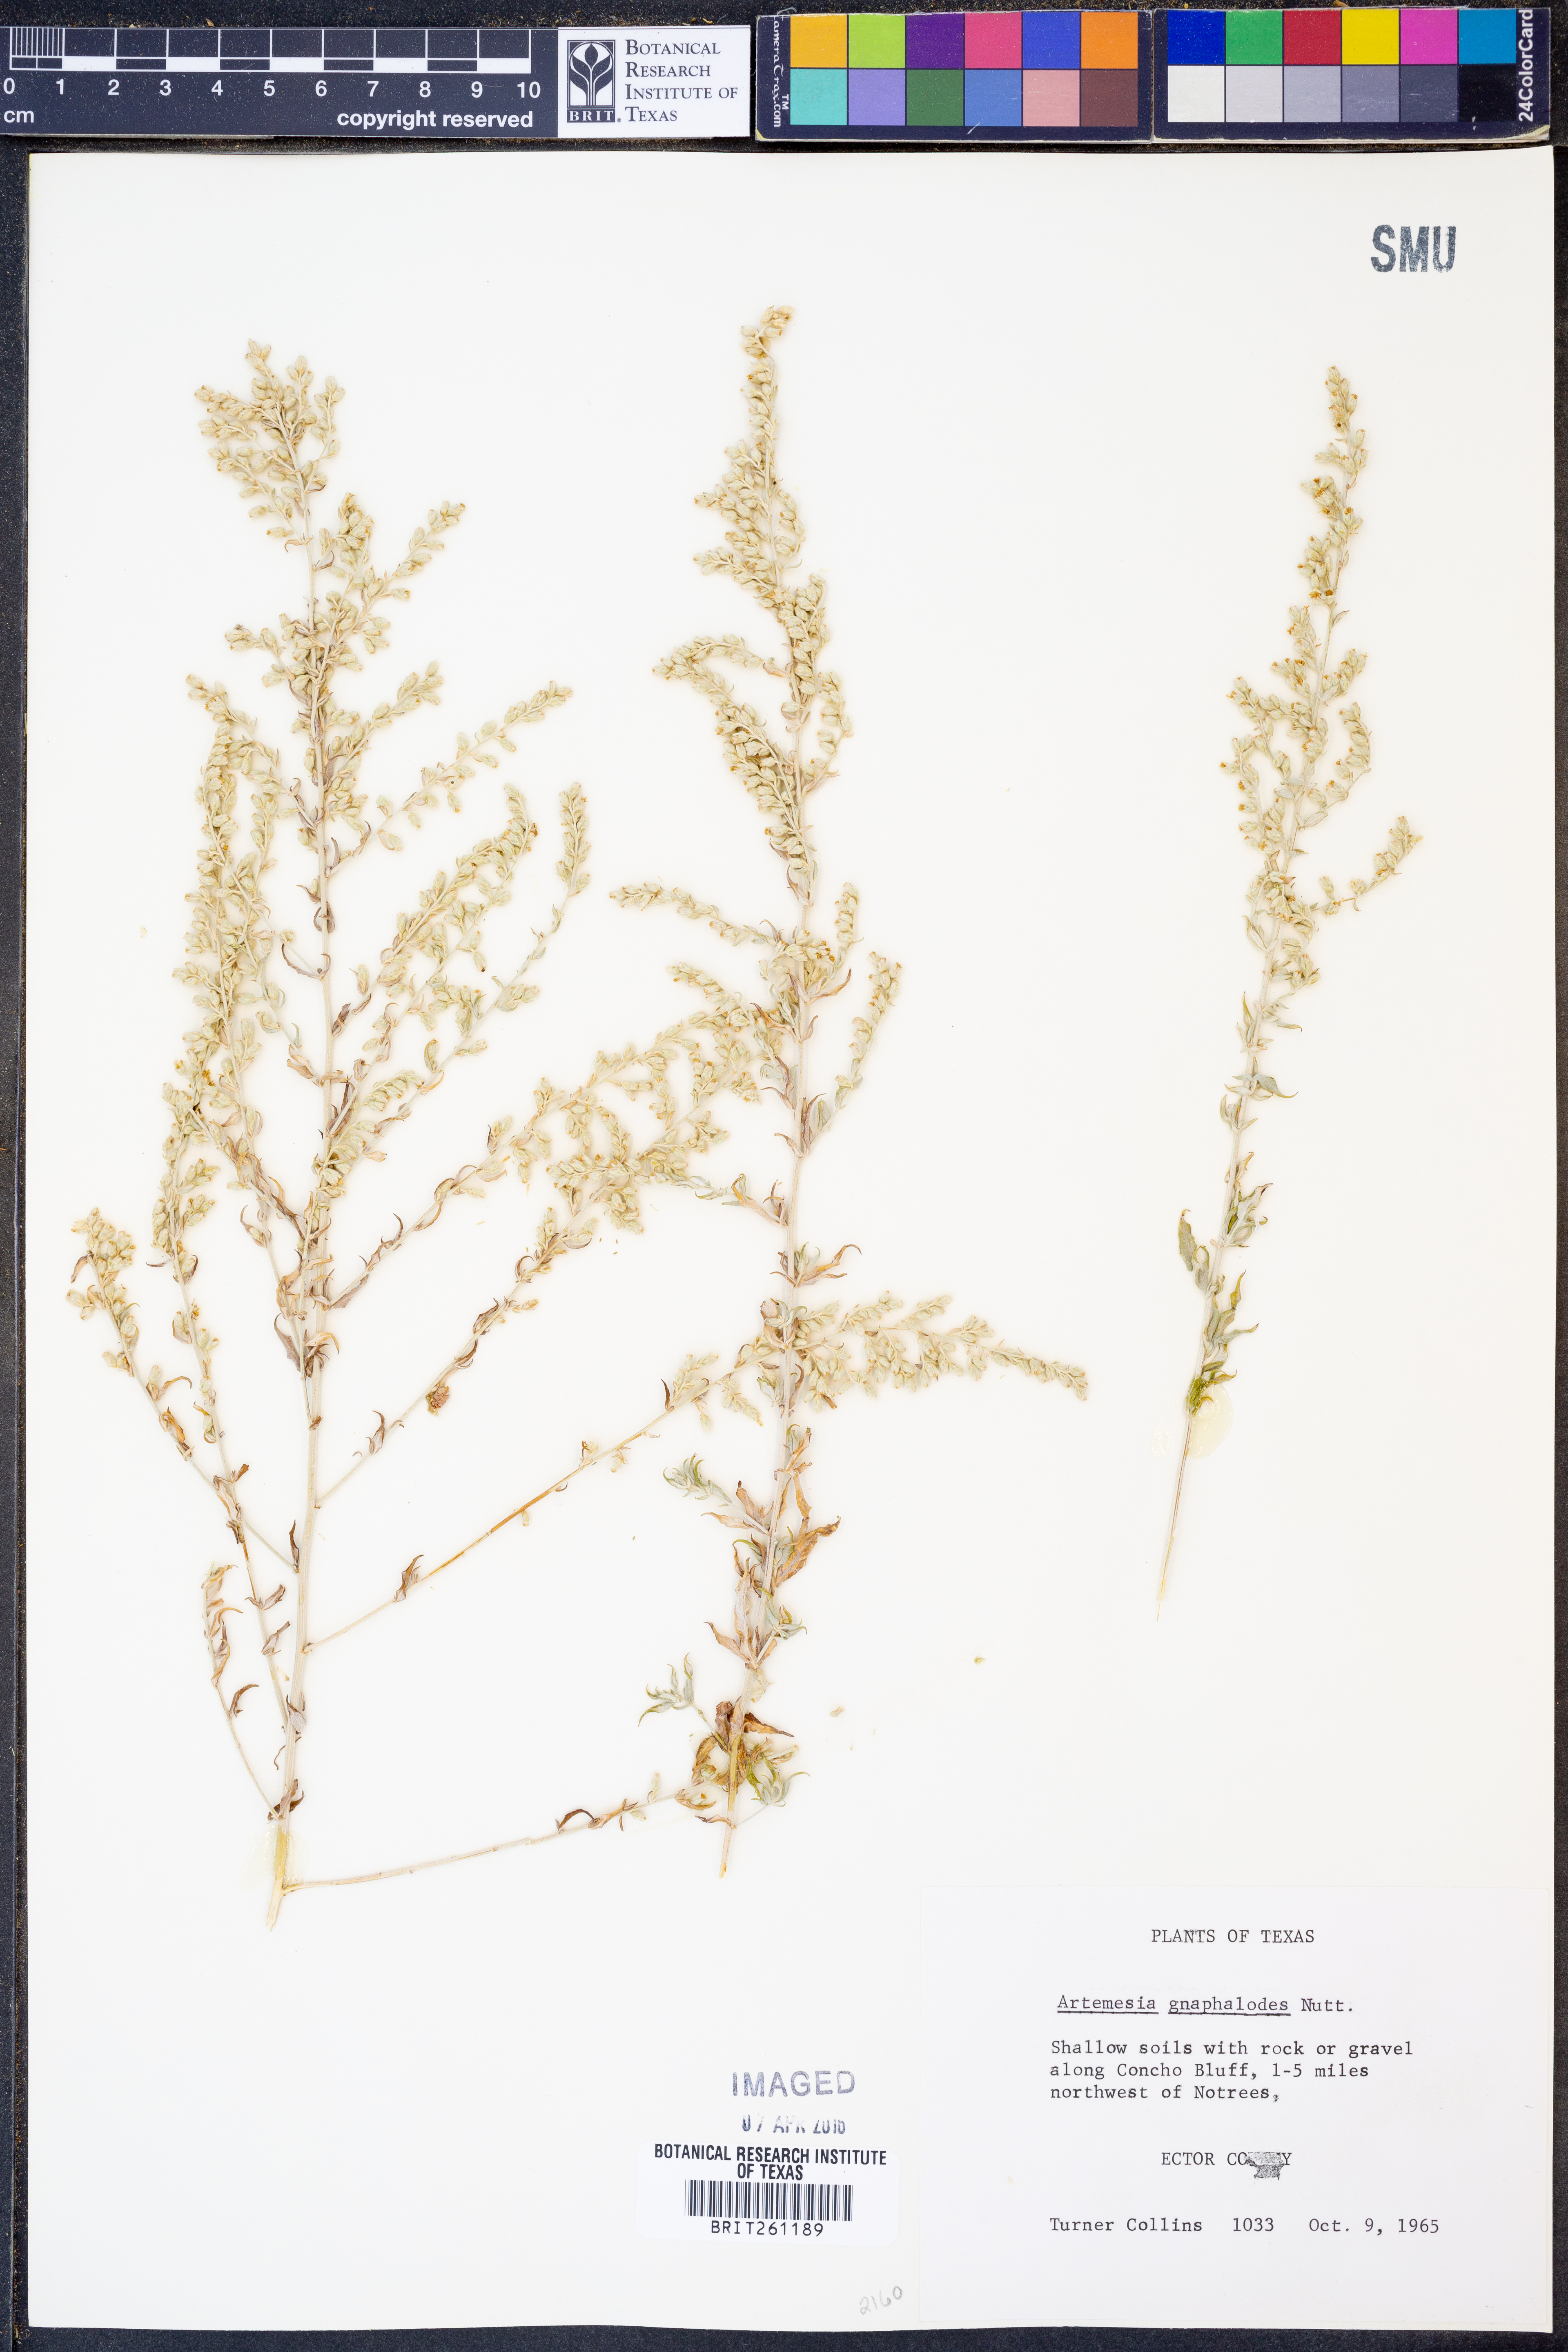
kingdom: Plantae
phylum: Tracheophyta
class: Magnoliopsida
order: Asterales
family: Asteraceae
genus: Artemisia
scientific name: Artemisia ludoviciana
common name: Western mugwort
